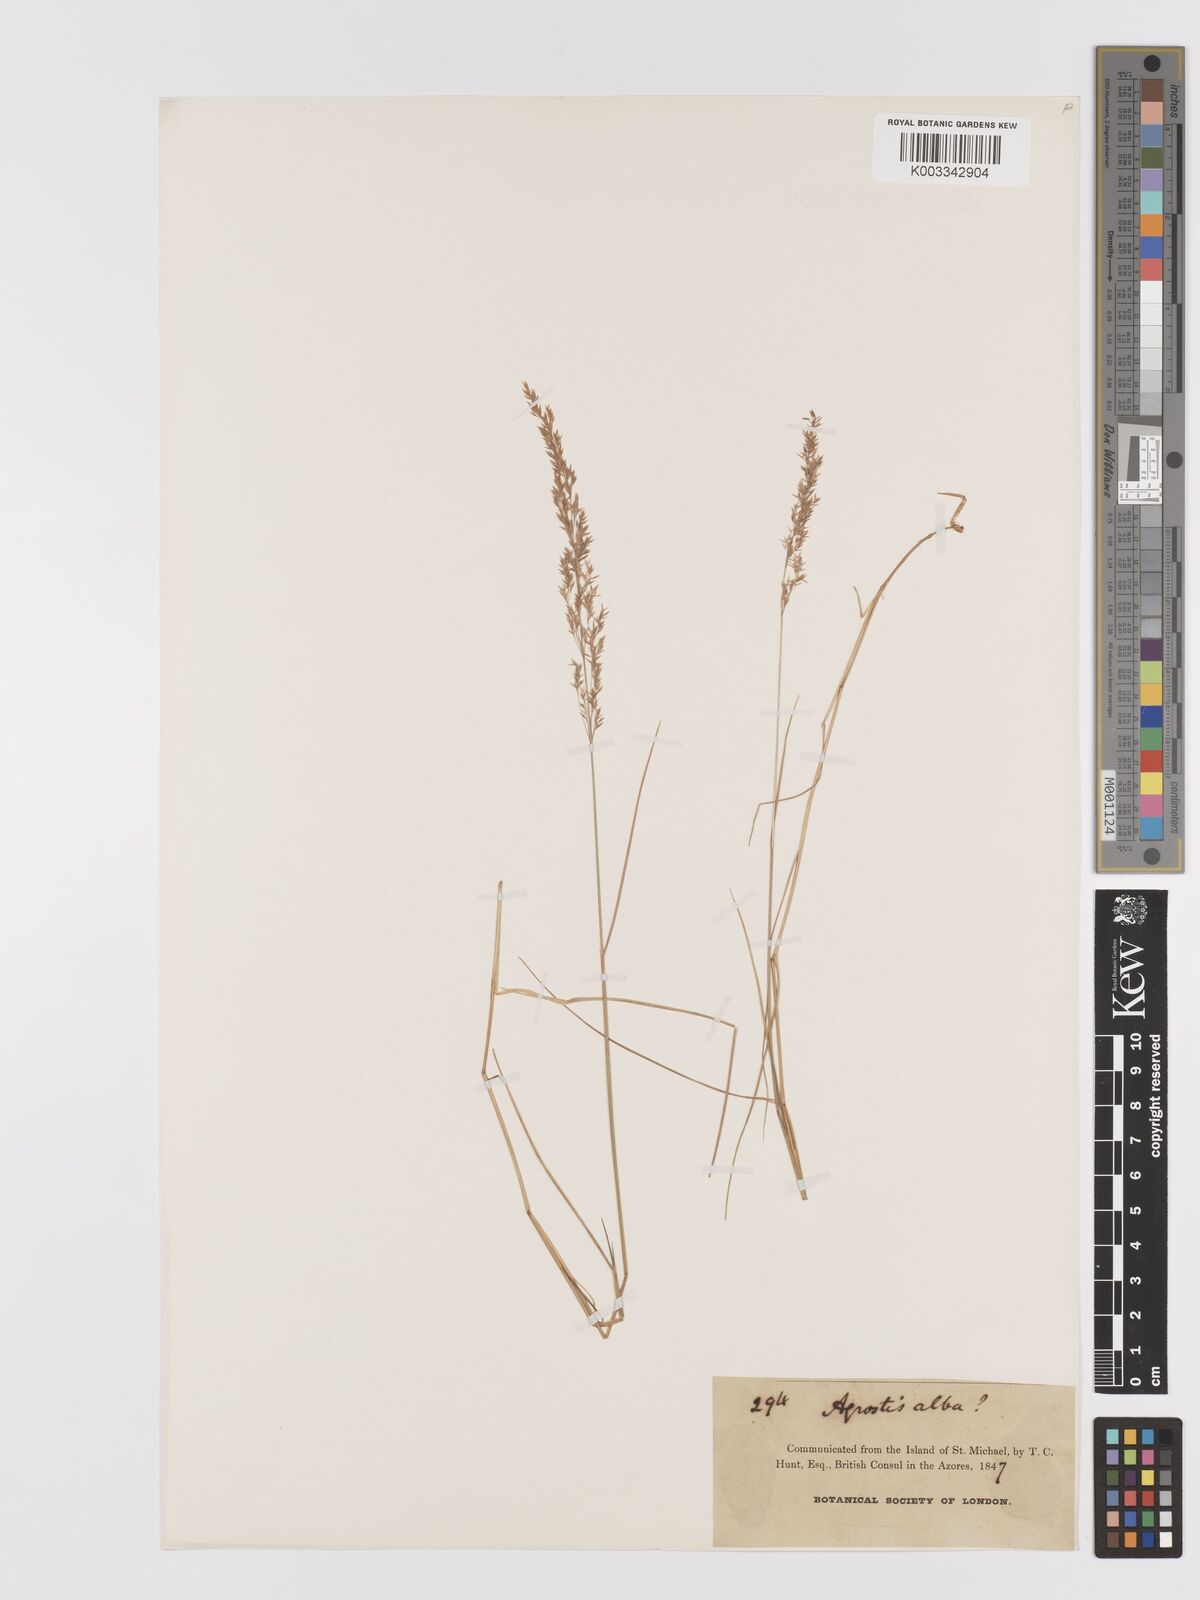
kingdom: Plantae
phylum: Tracheophyta
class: Liliopsida
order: Poales
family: Poaceae
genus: Agrostis
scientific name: Agrostis
